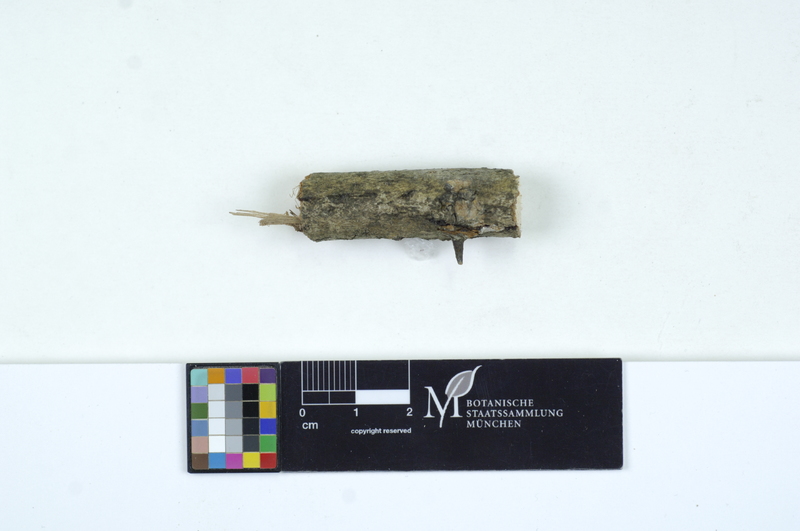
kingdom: Fungi
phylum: Basidiomycota
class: Agaricomycetes
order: Auriculariales
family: Auriculariaceae
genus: Exidiopsis
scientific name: Exidiopsis
